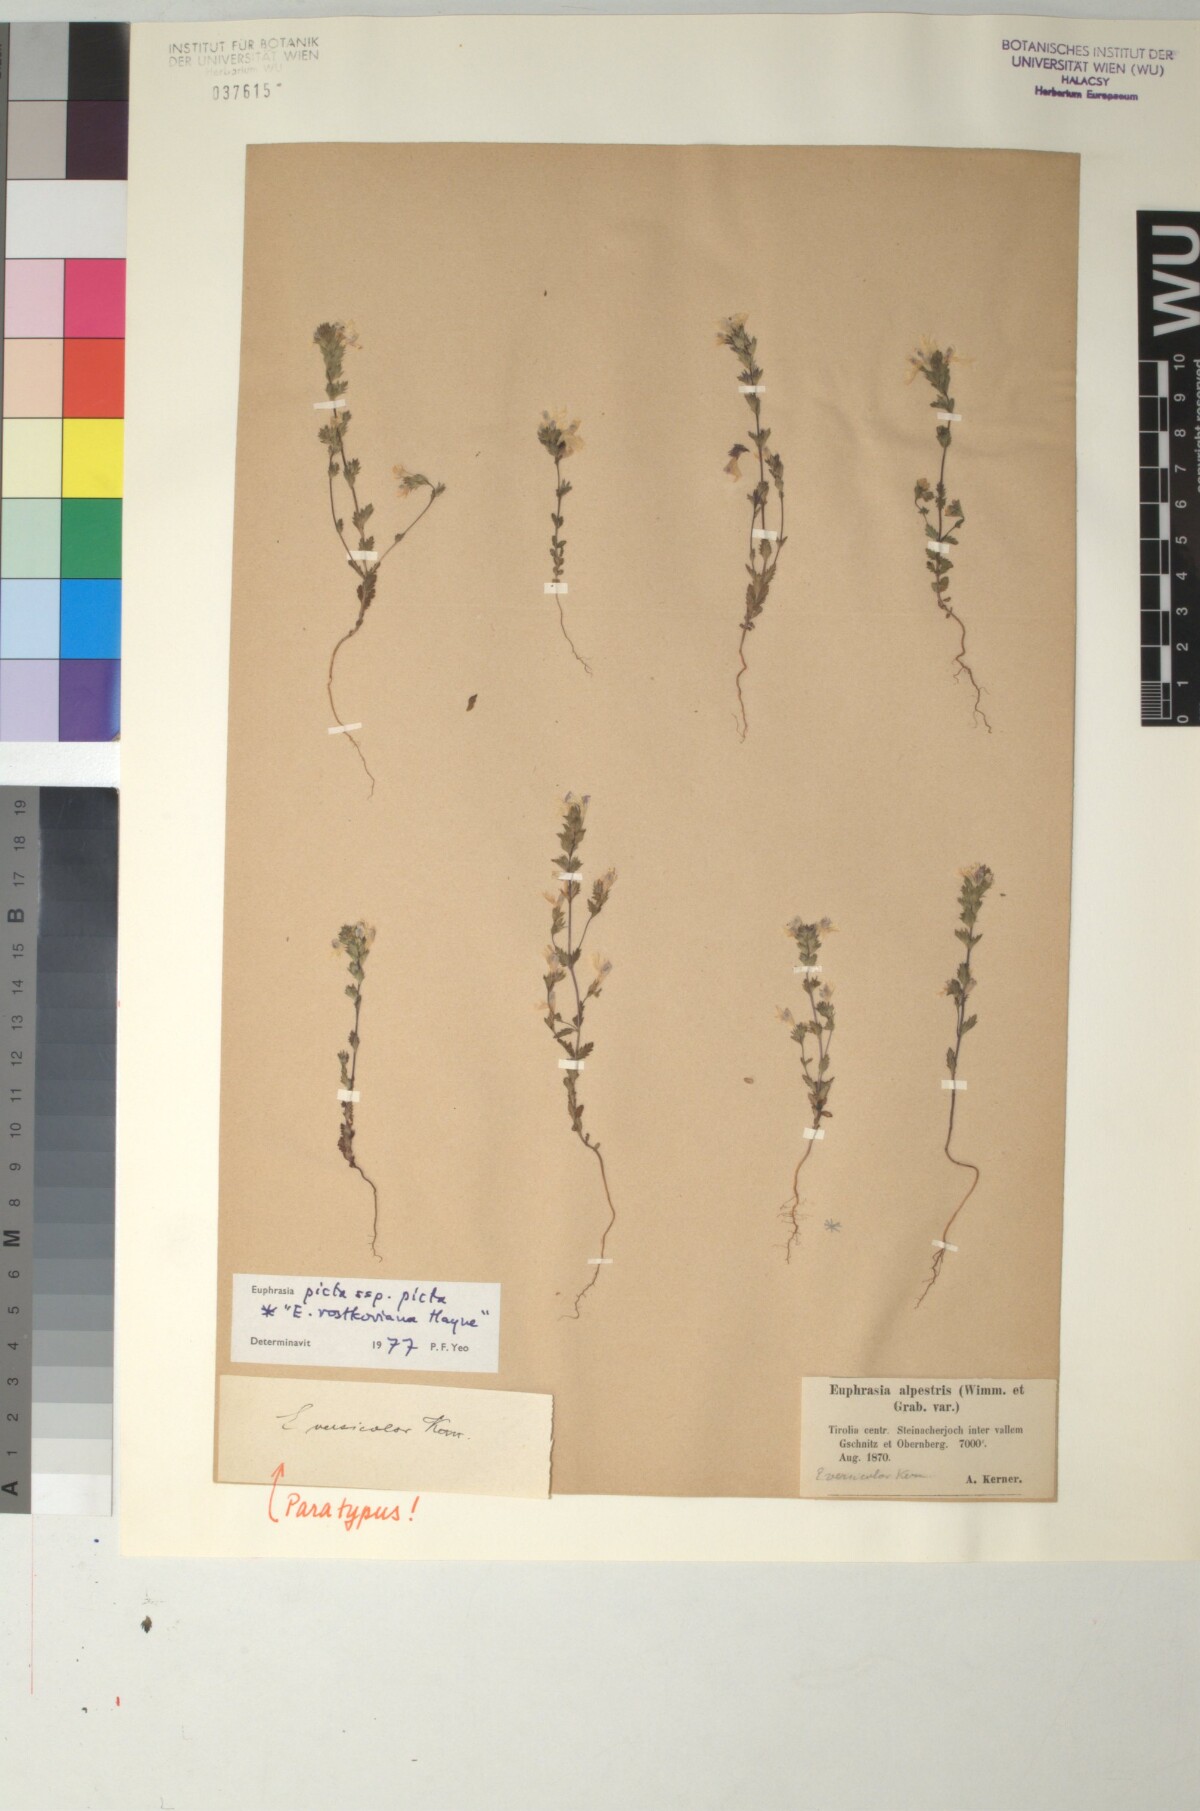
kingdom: Plantae
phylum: Tracheophyta
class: Magnoliopsida
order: Lamiales
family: Orobanchaceae
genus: Euphrasia
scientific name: Euphrasia picta
